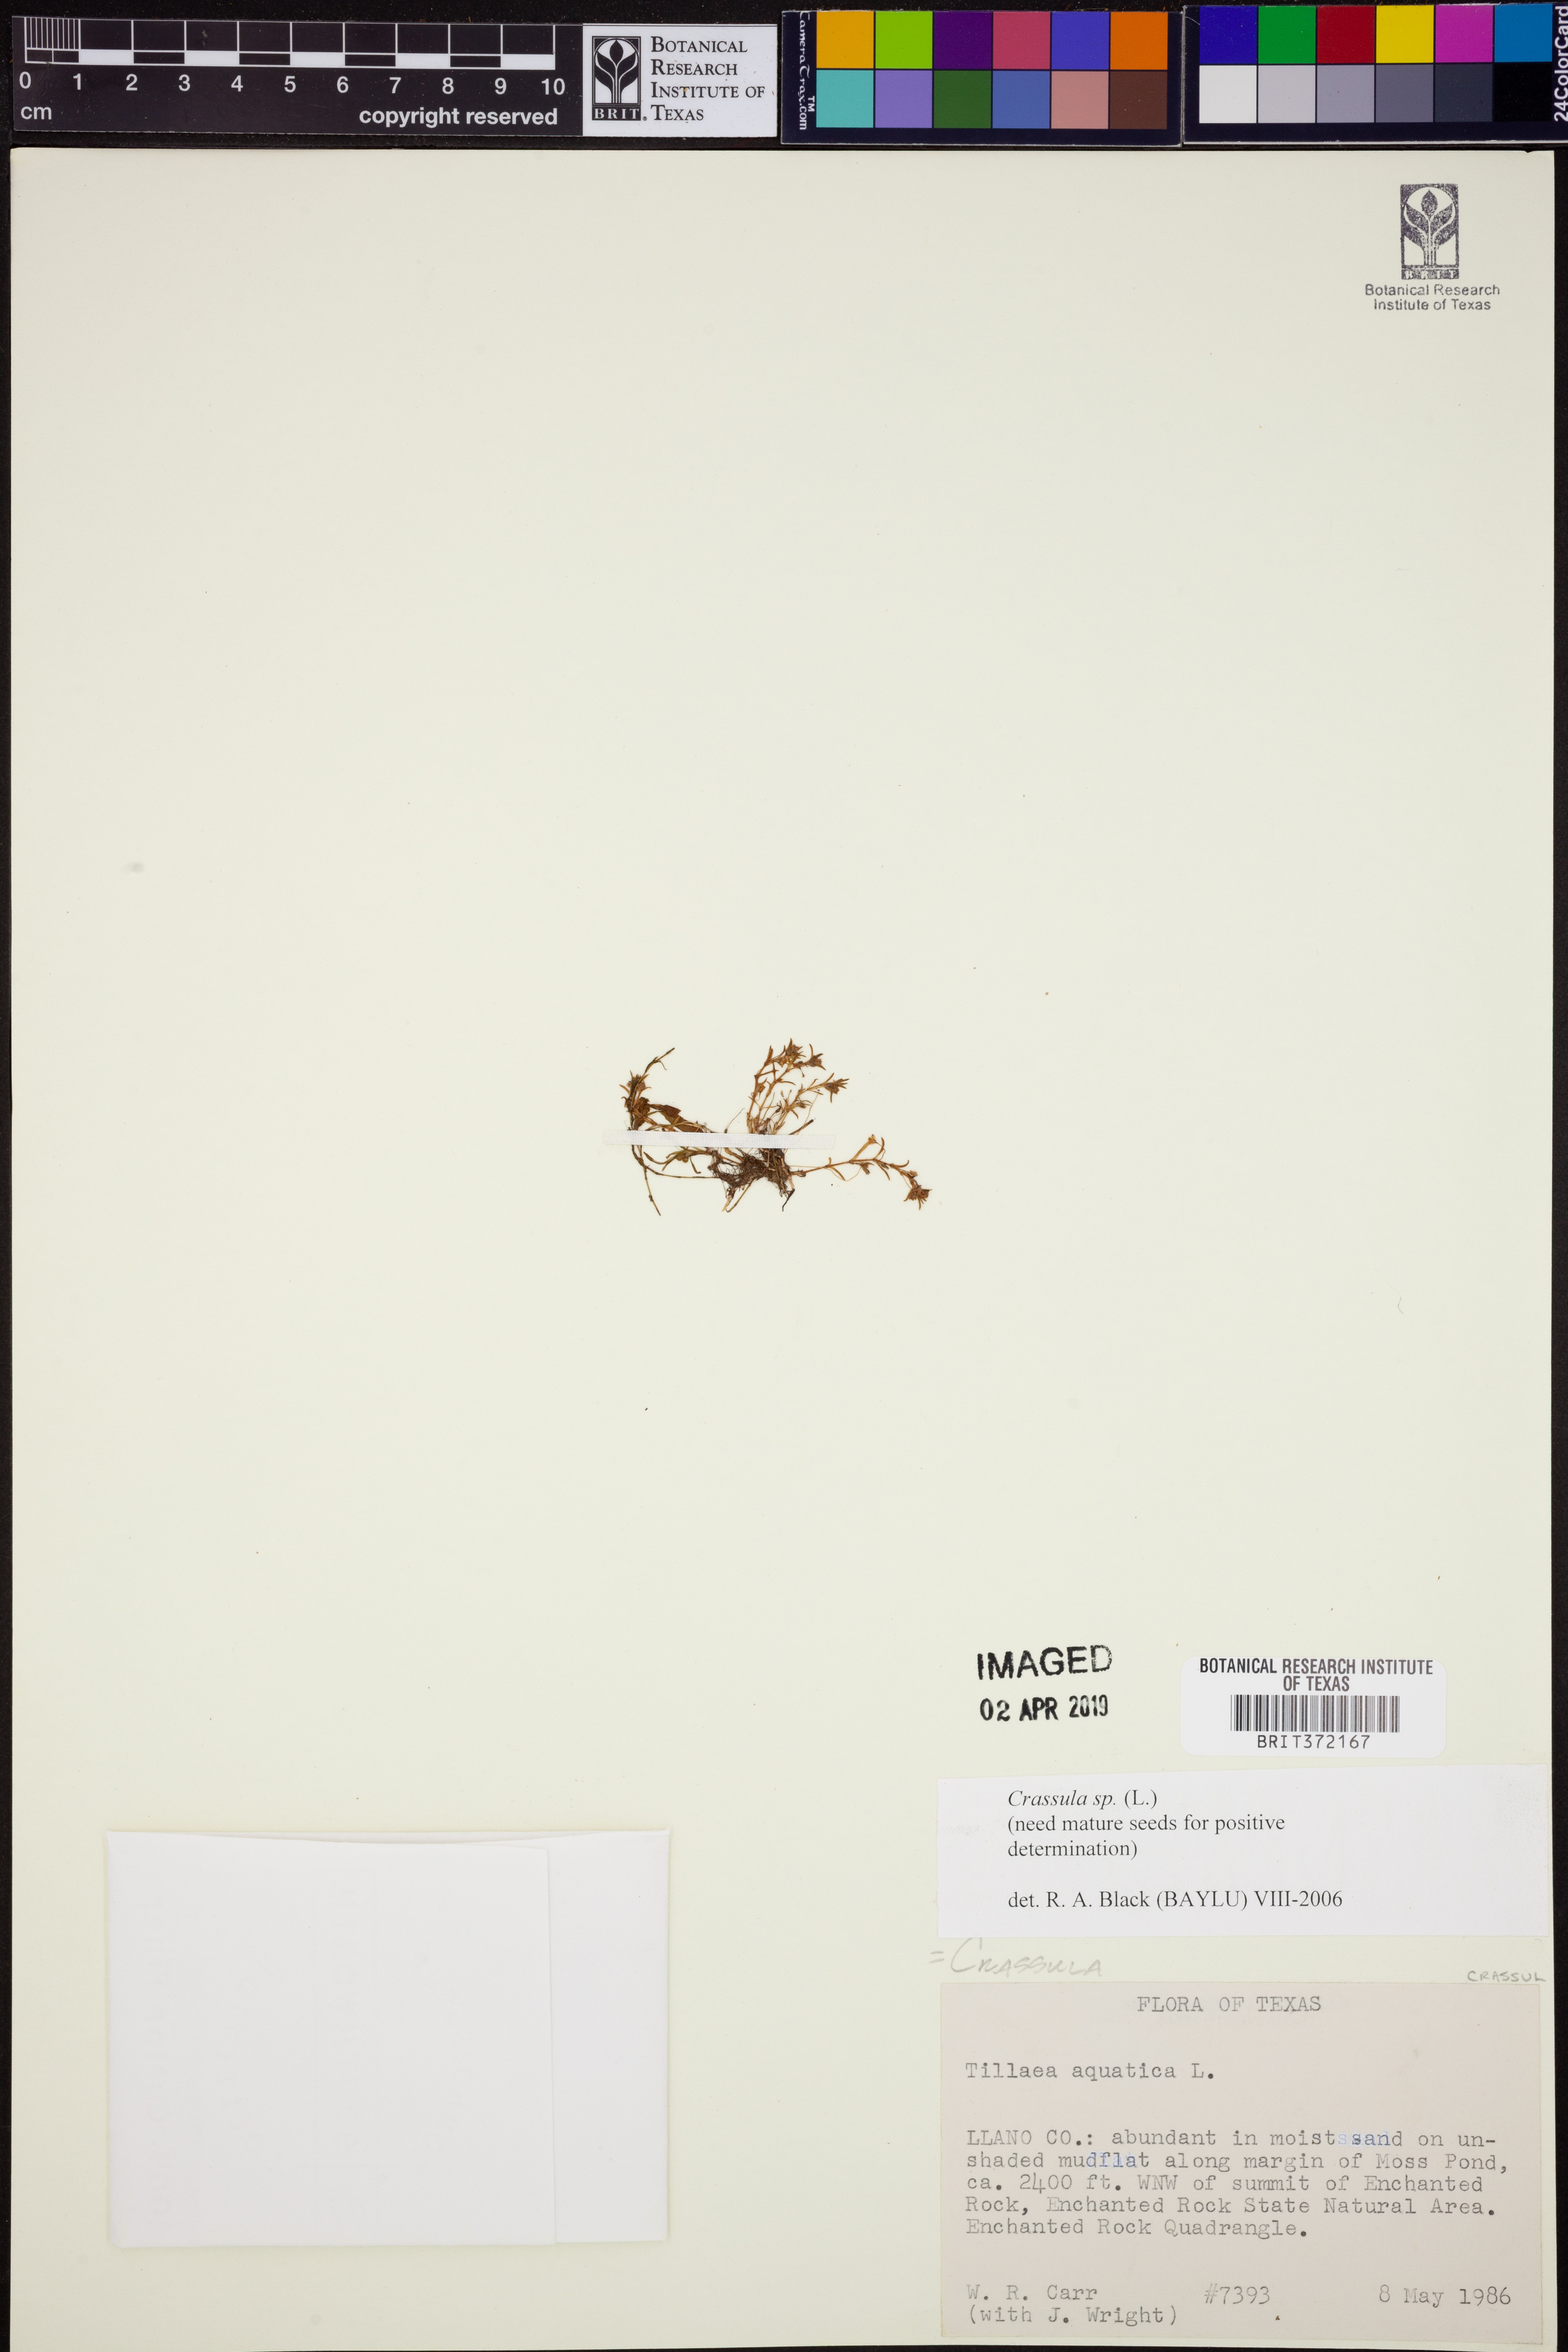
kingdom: Plantae
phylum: Tracheophyta
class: Magnoliopsida
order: Saxifragales
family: Crassulaceae
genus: Crassula
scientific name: Crassula
